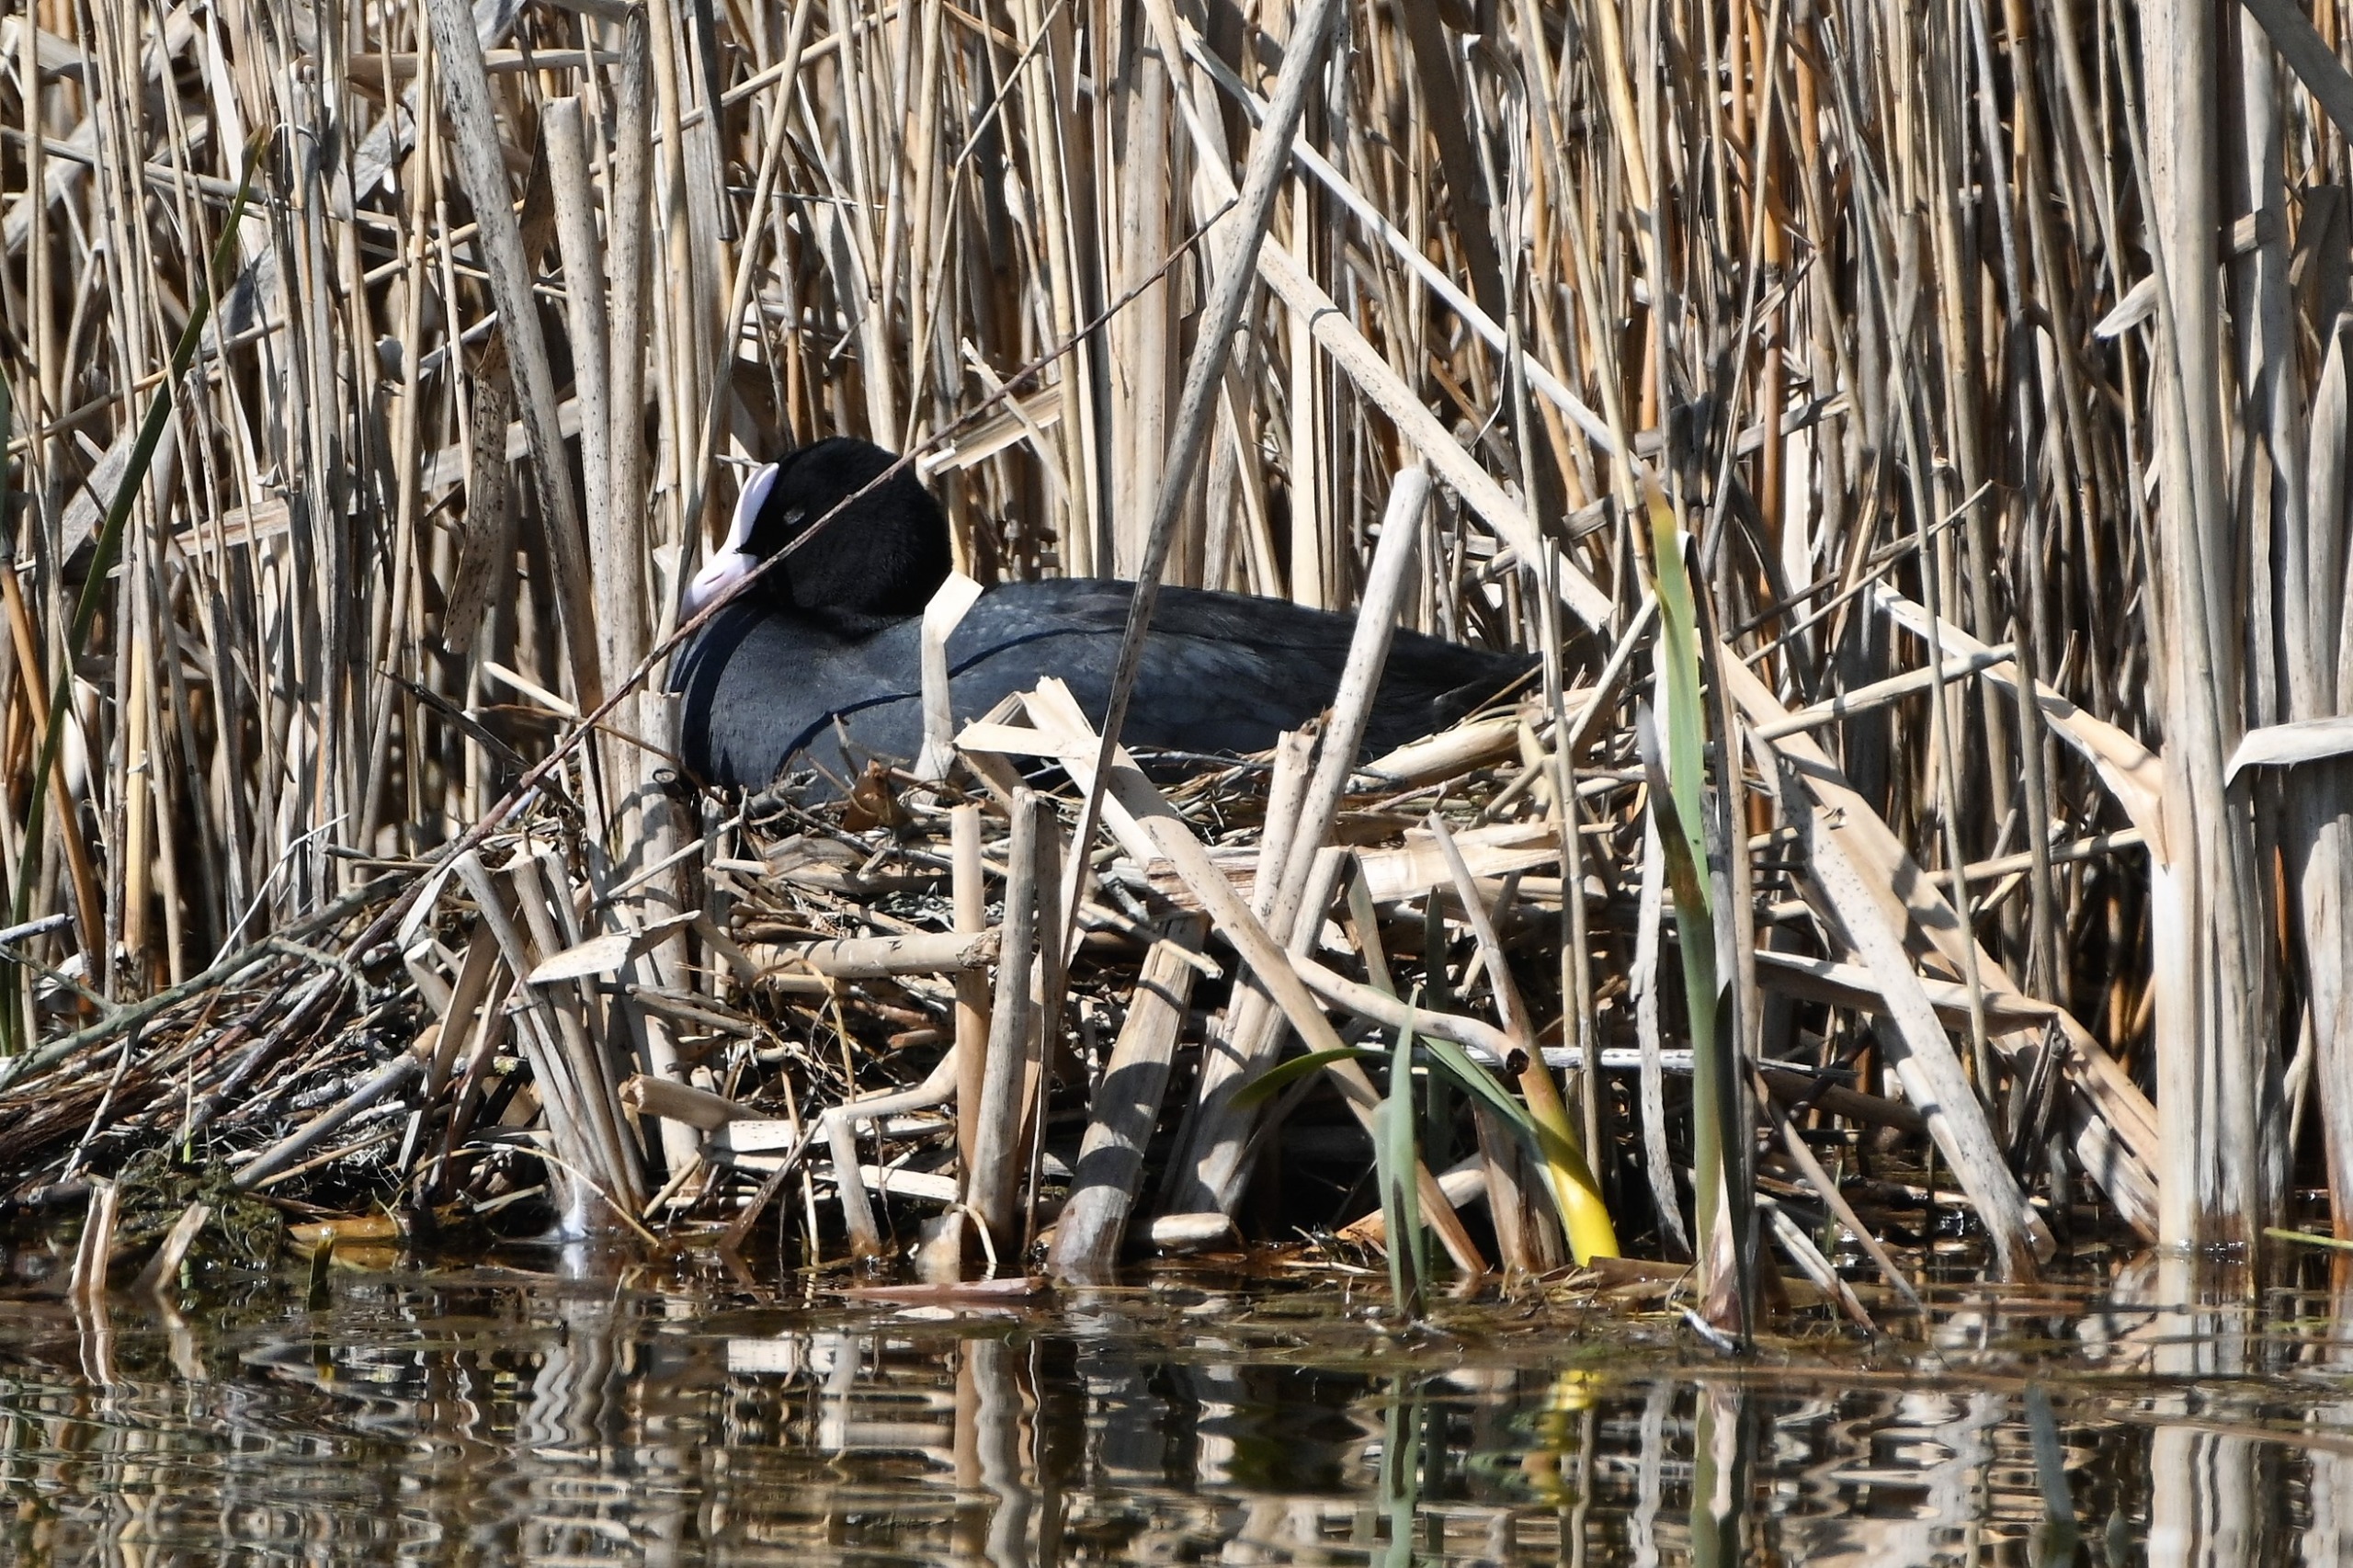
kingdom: Animalia
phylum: Chordata
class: Aves
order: Gruiformes
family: Rallidae
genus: Fulica
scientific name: Fulica atra
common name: Blishøne
